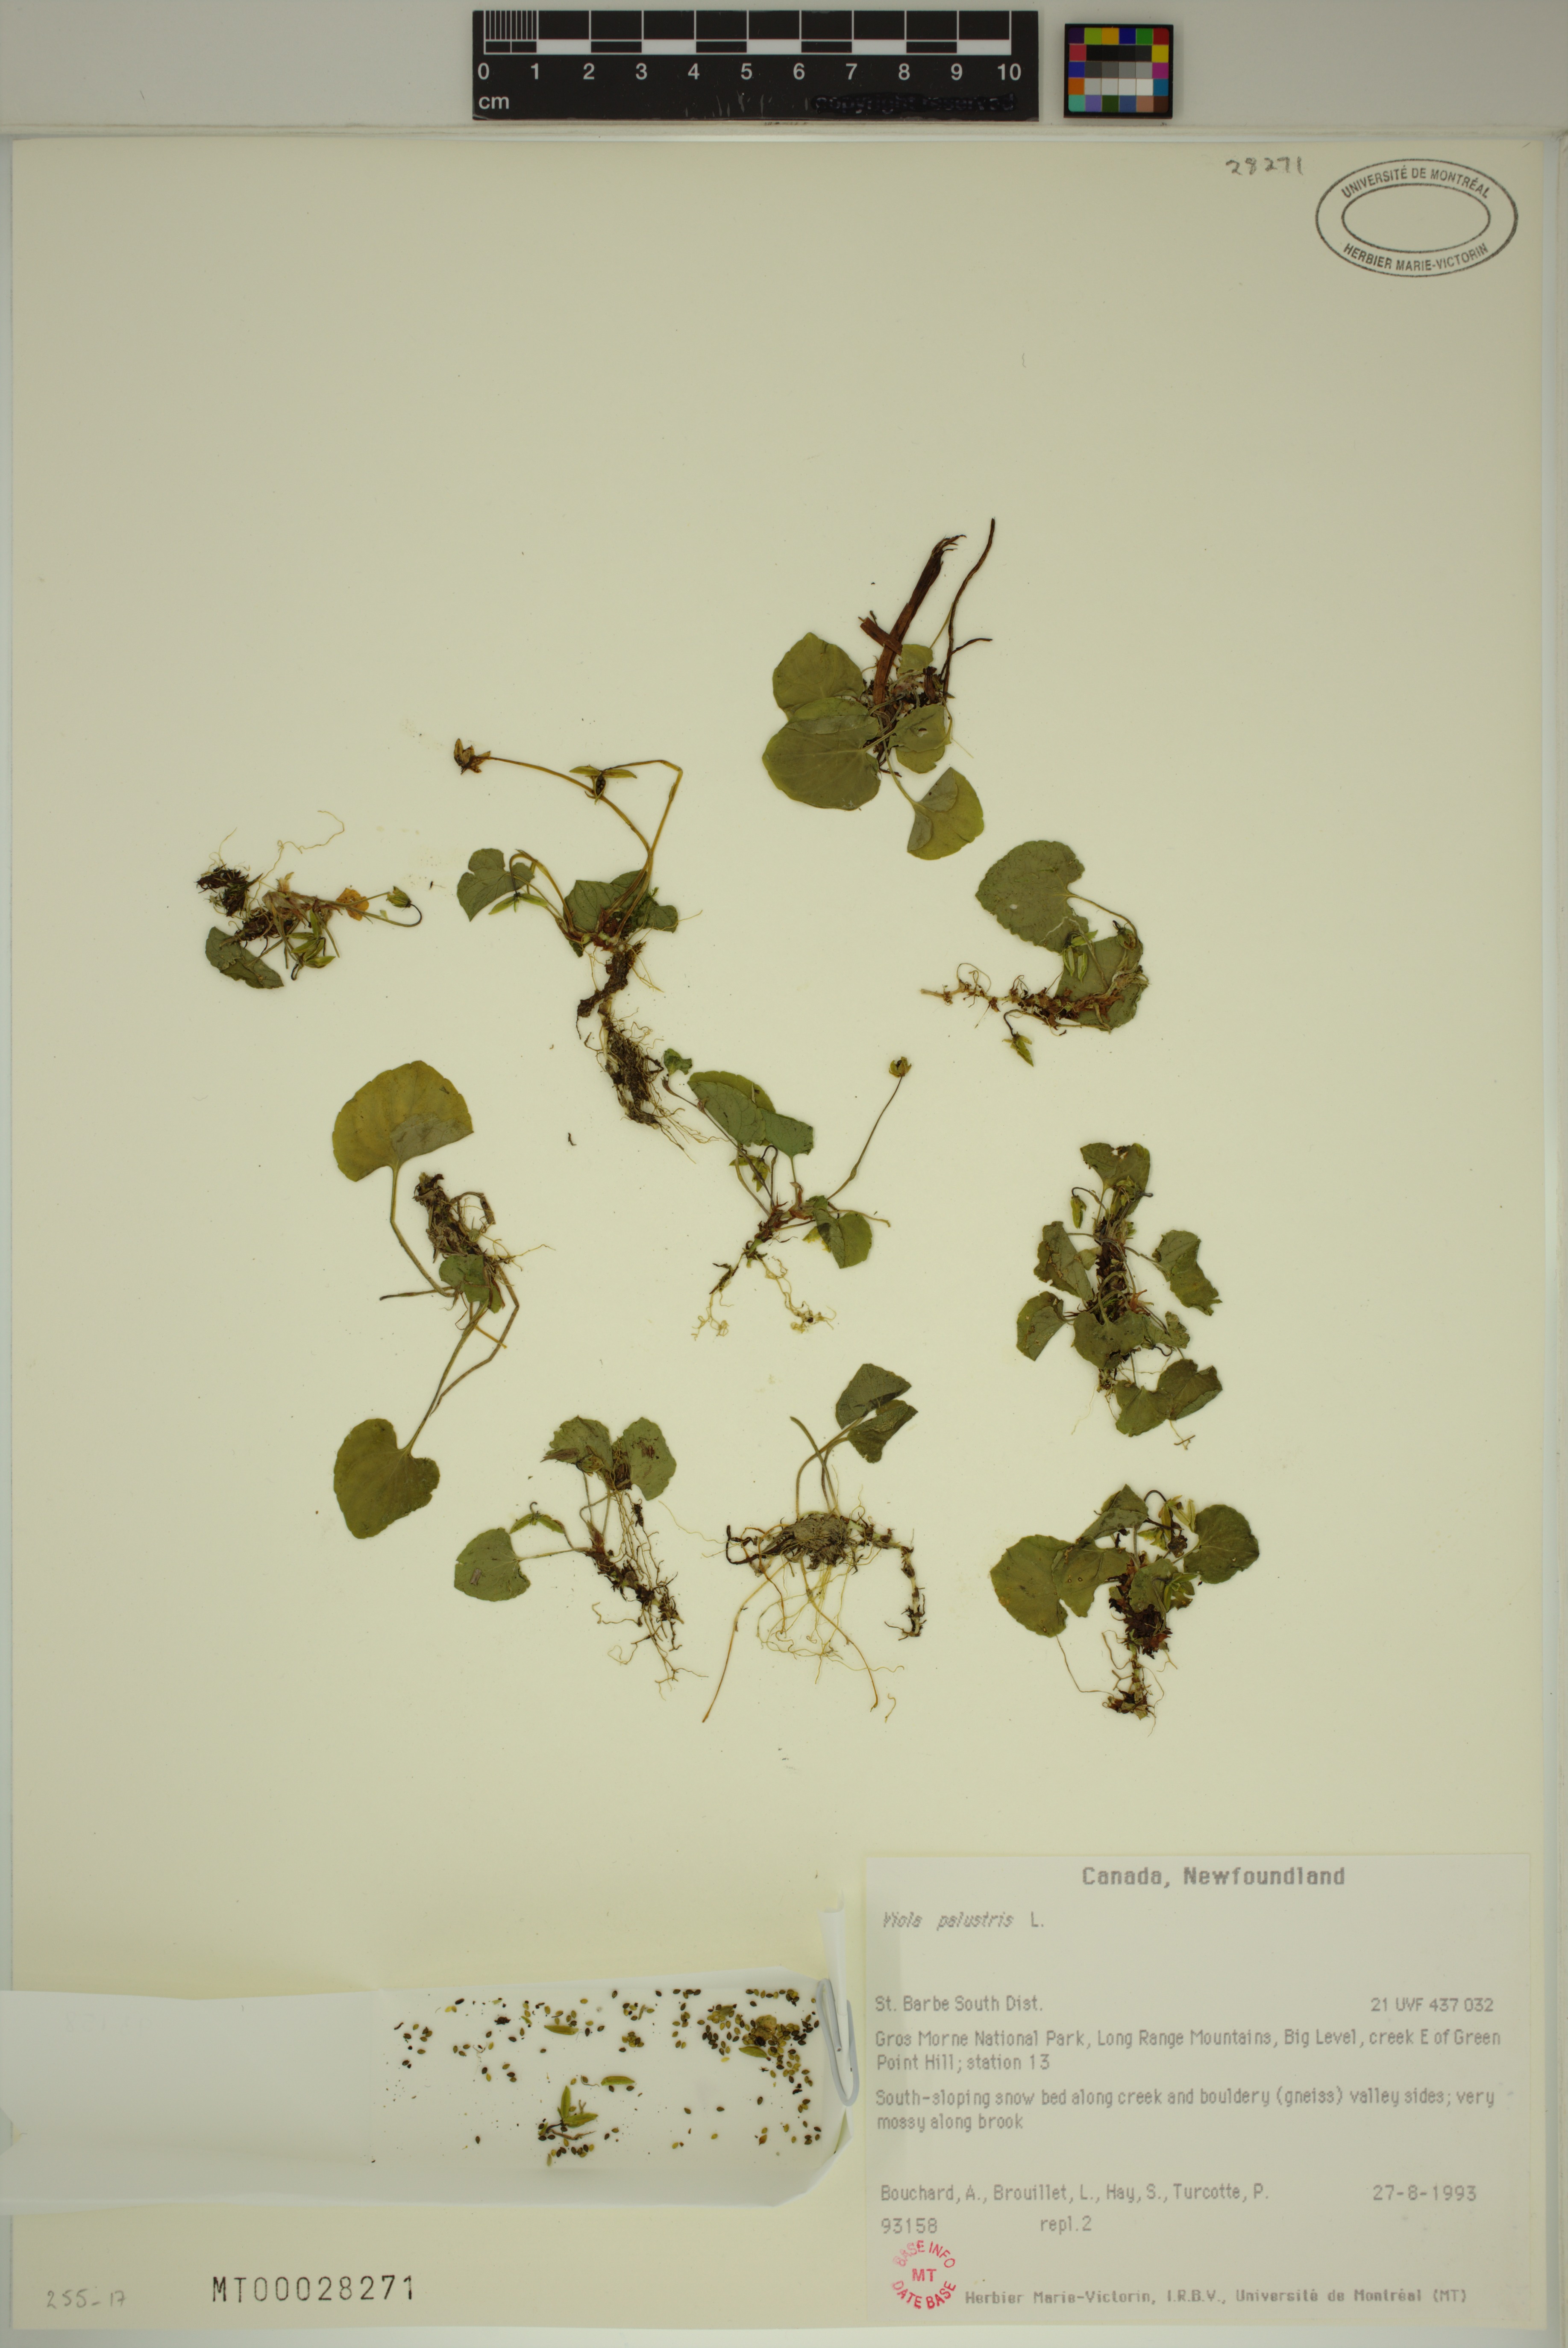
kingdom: Plantae
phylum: Tracheophyta
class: Magnoliopsida
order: Malpighiales
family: Violaceae
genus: Viola
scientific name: Viola palustris
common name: Marsh violet
